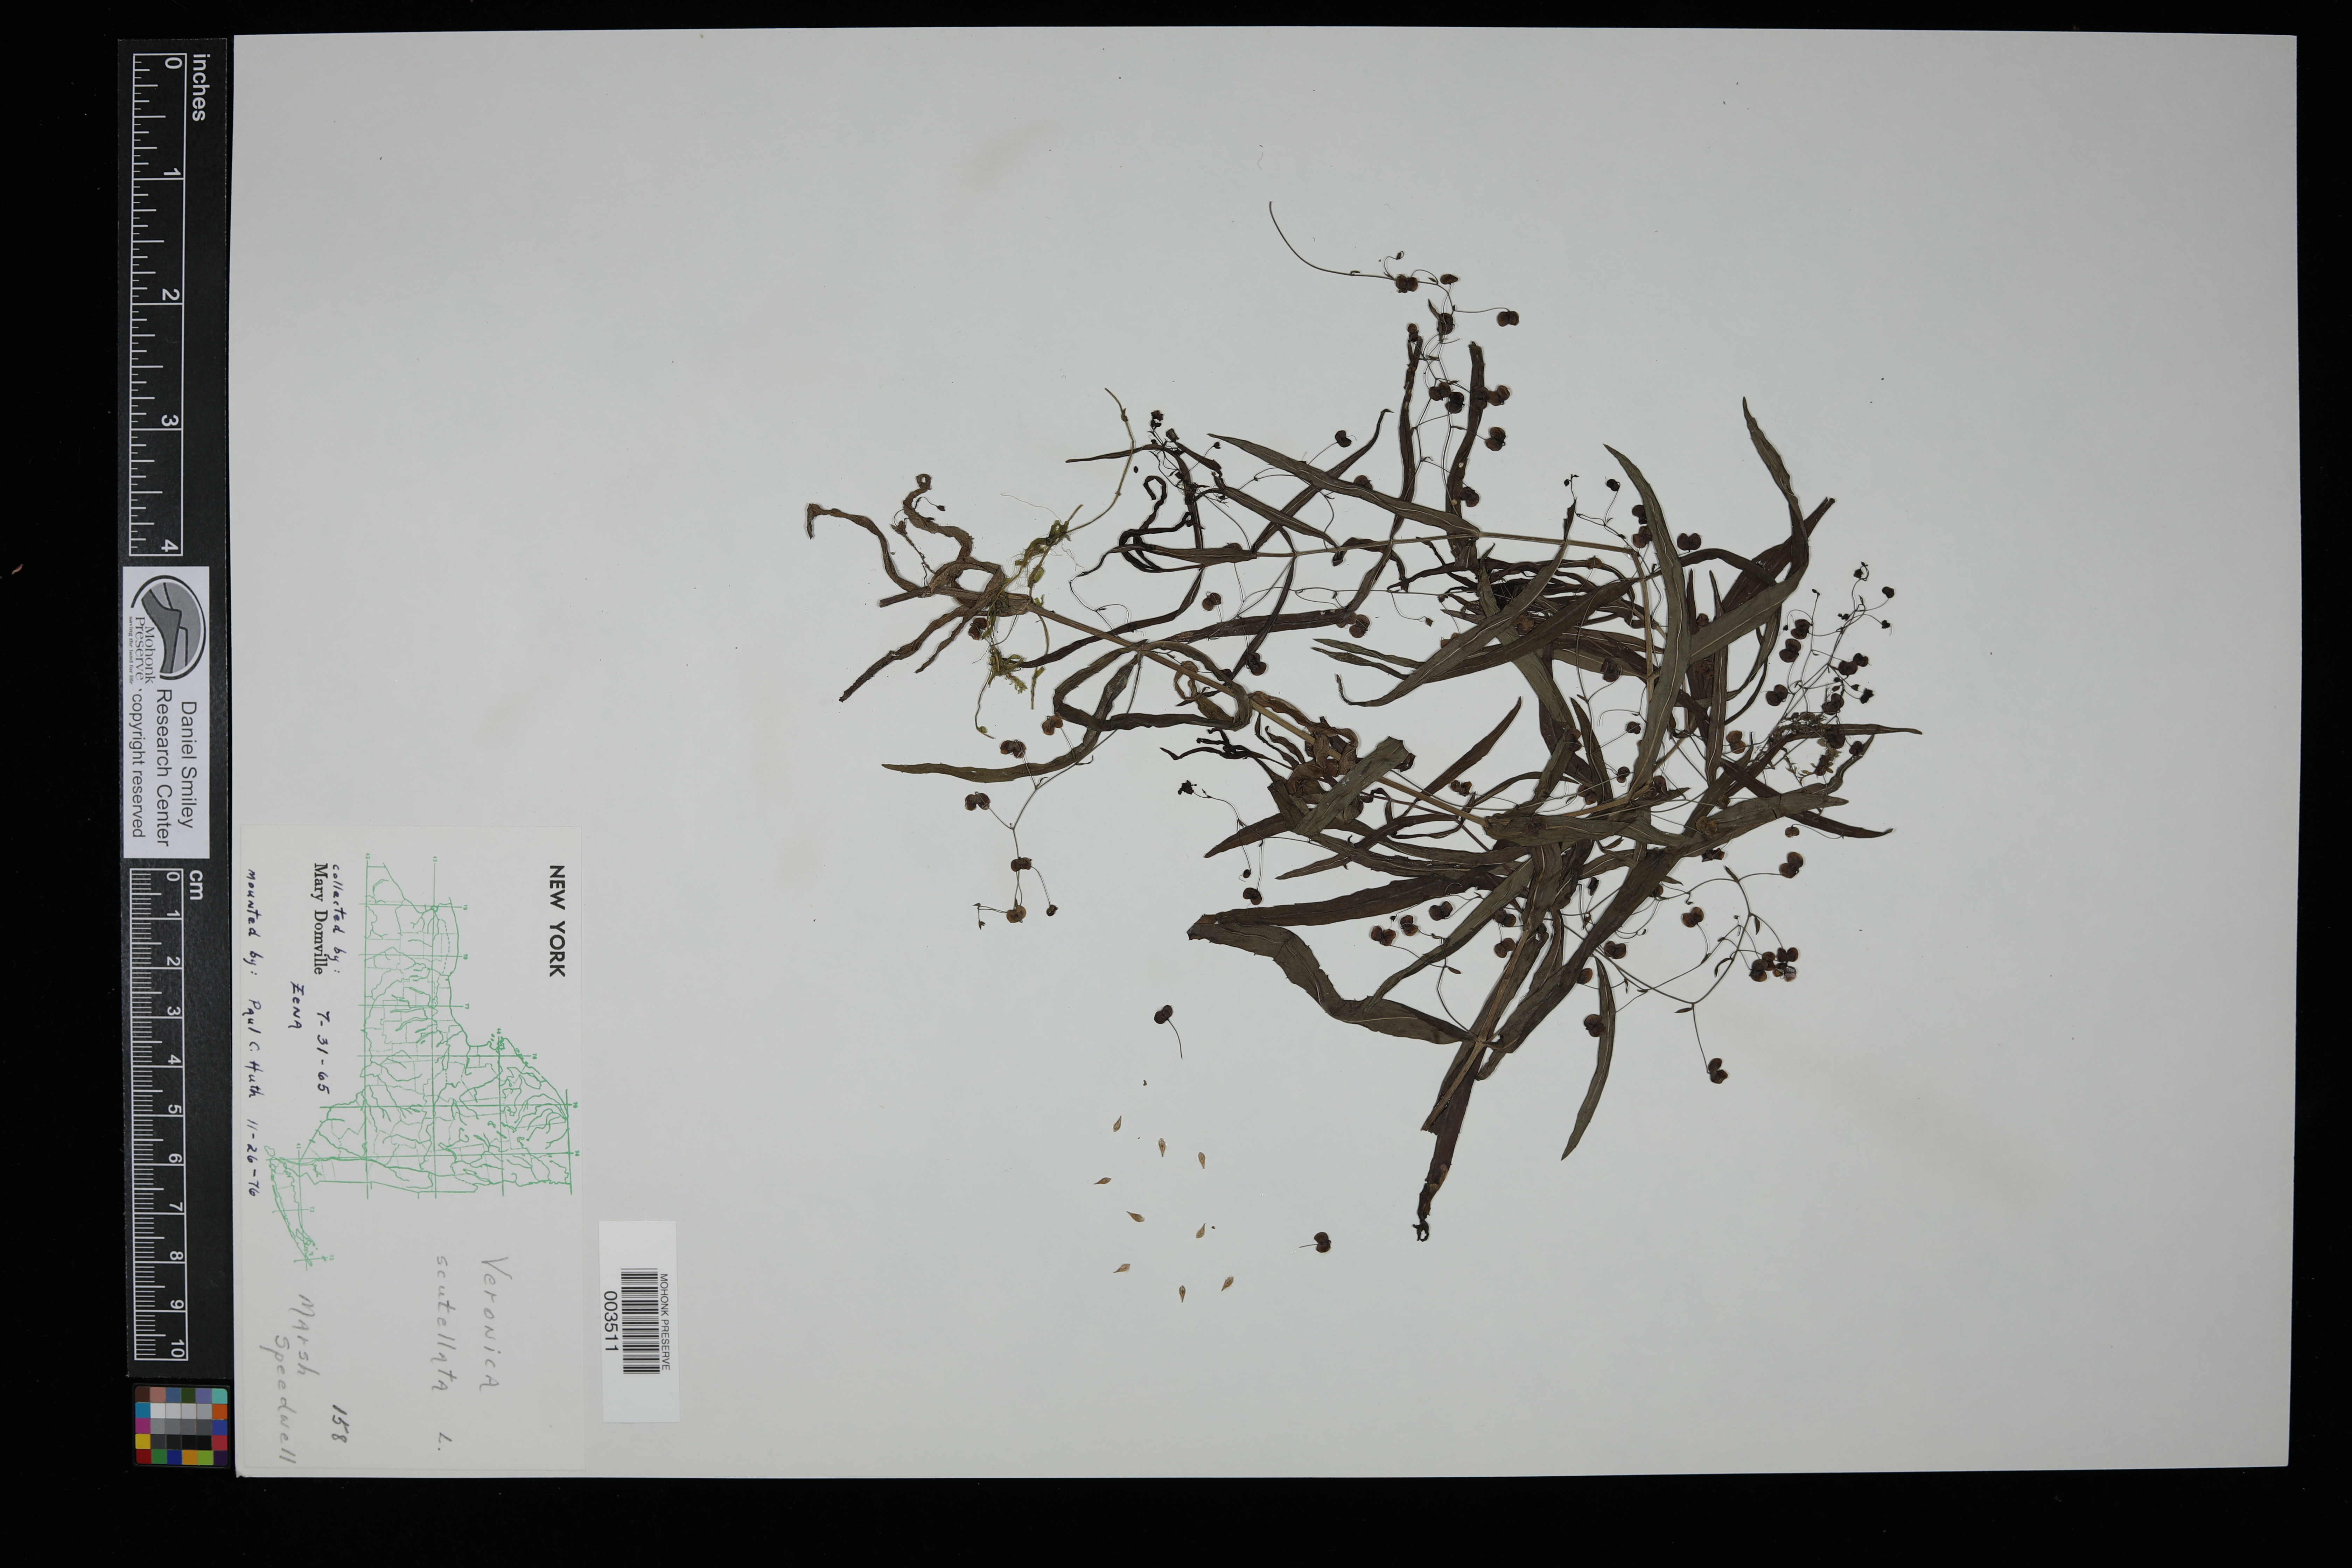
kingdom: Plantae
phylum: Tracheophyta
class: Magnoliopsida
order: Lamiales
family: Plantaginaceae
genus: Veronica
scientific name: Veronica scutellata
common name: Marsh speedwell
